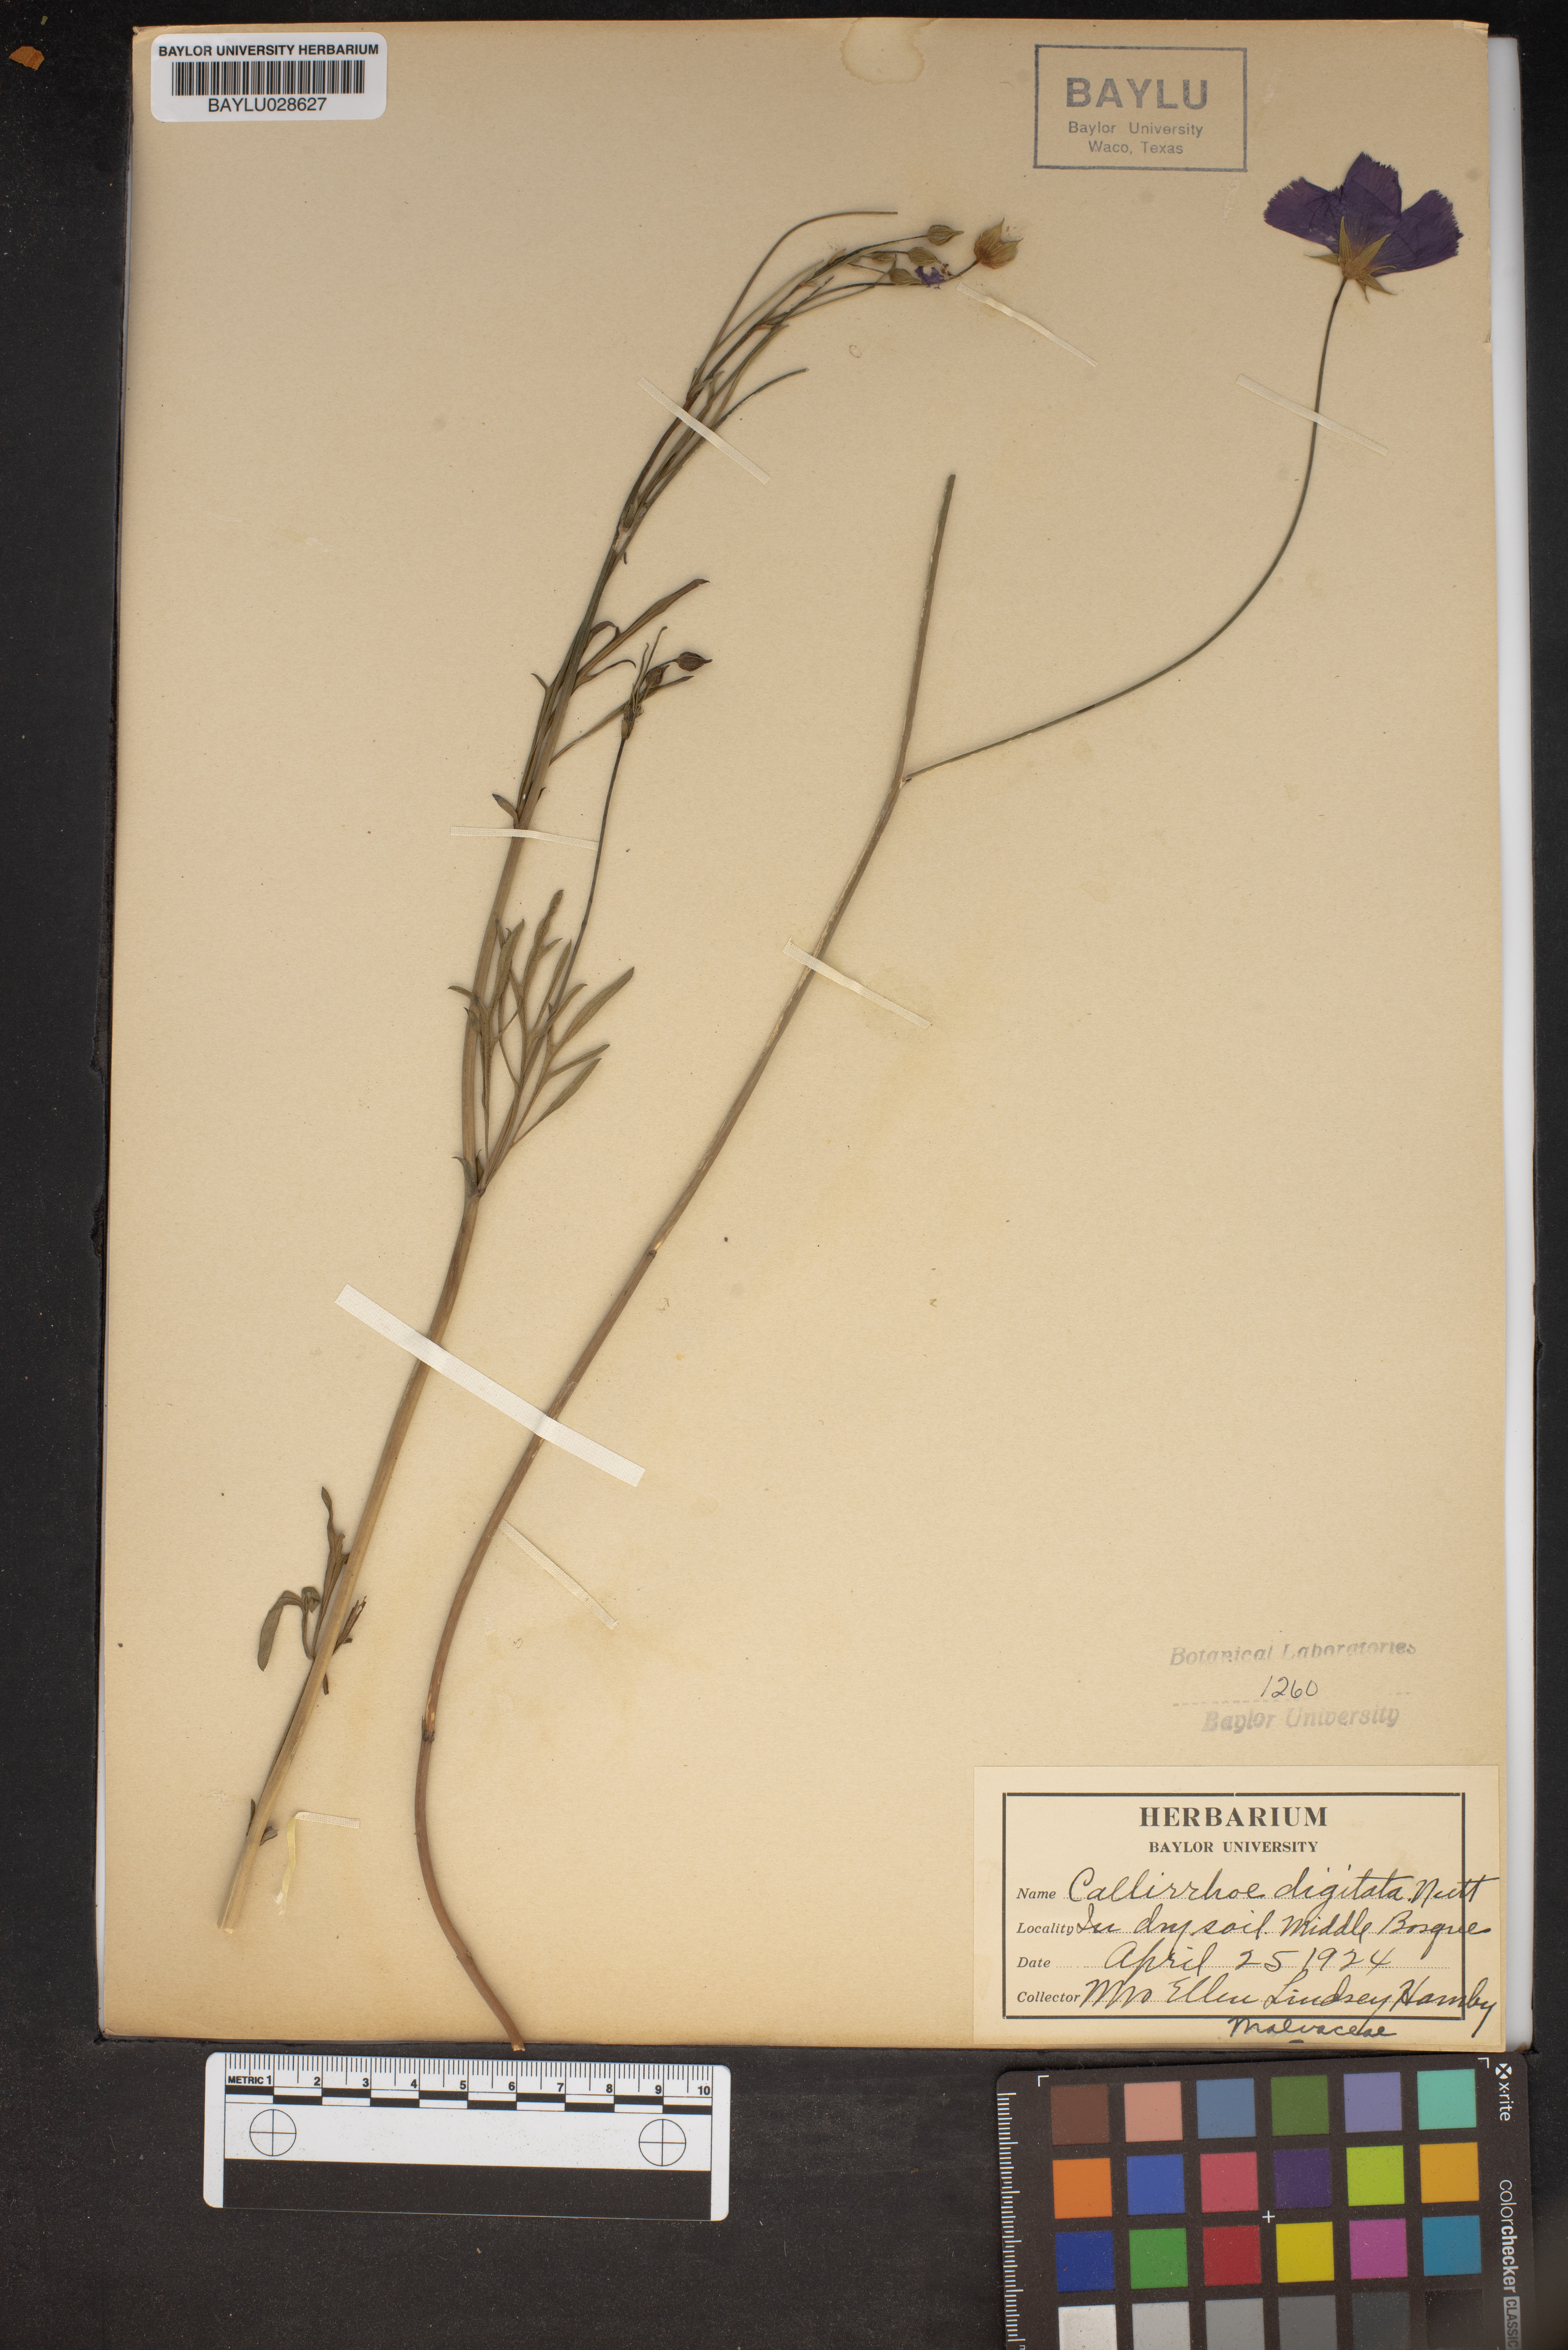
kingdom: Plantae
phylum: Tracheophyta
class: Magnoliopsida
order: Malvales
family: Malvaceae
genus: Callirhoe
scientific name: Callirhoe digitata
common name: Finger poppy-mallow
